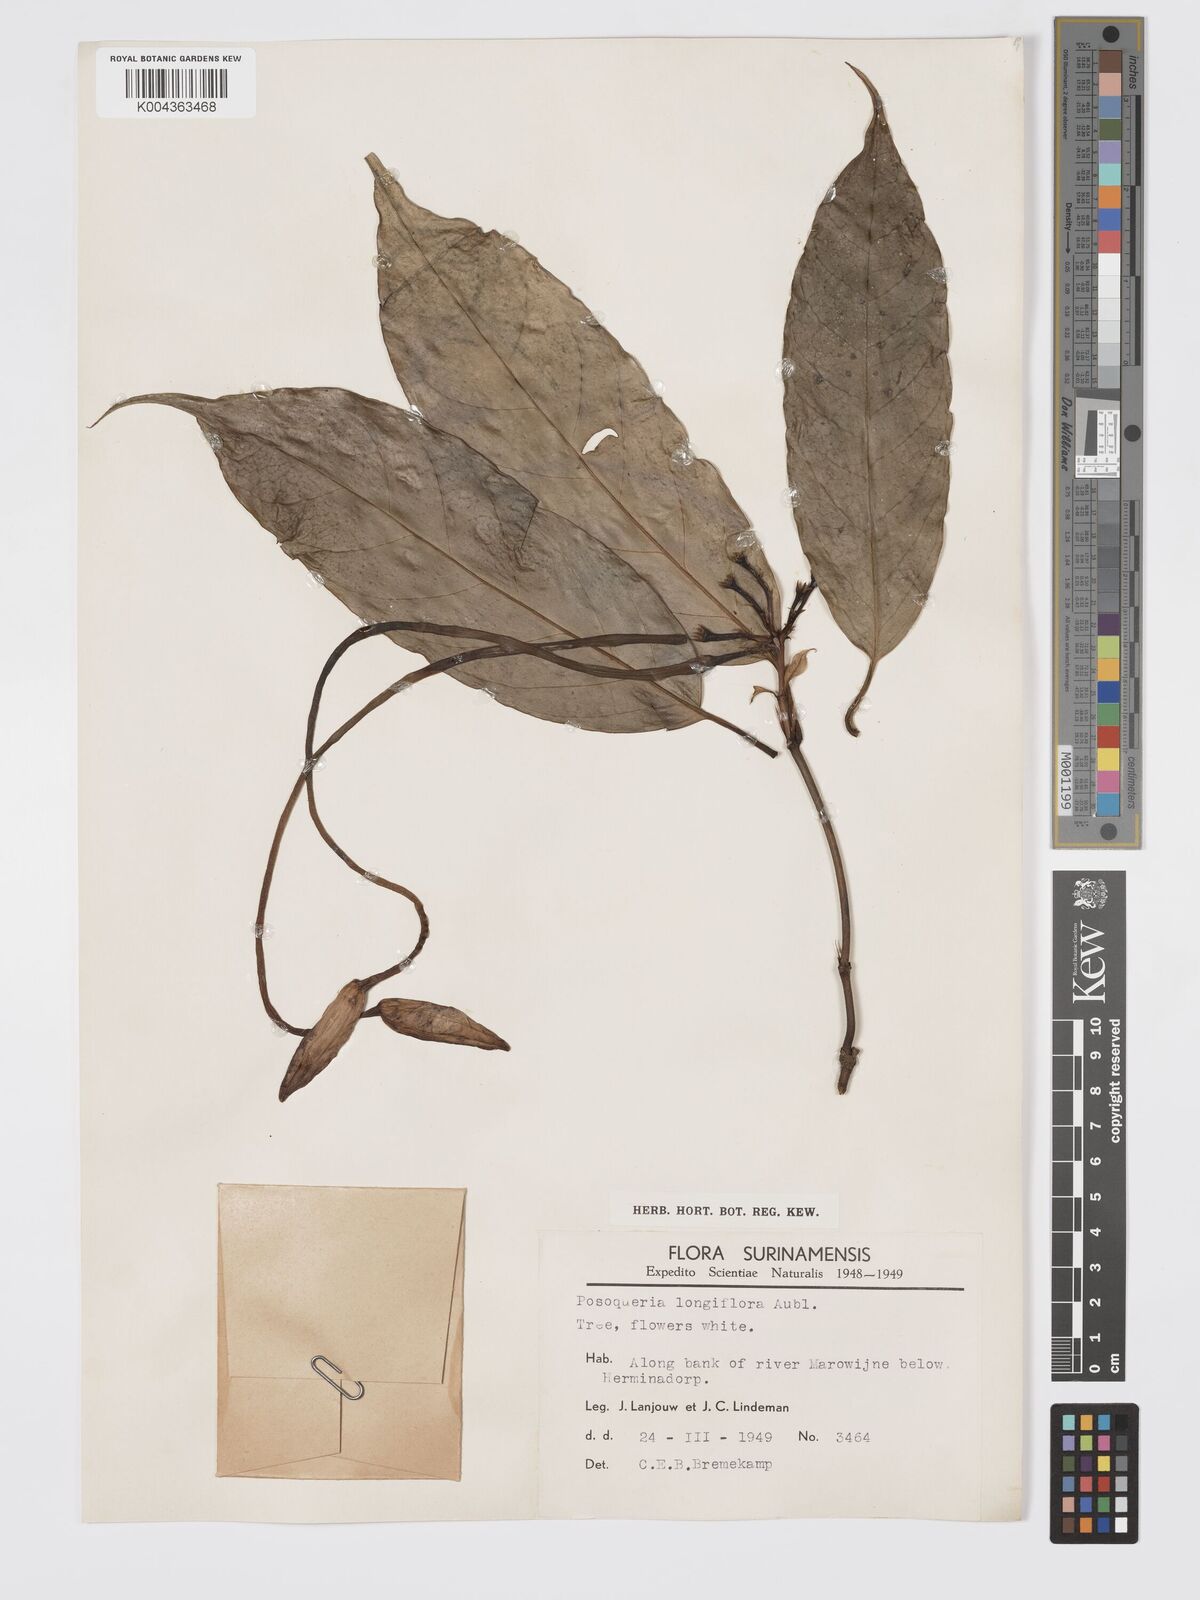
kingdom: Plantae
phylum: Tracheophyta
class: Magnoliopsida
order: Gentianales
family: Rubiaceae
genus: Posoqueria
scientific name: Posoqueria
